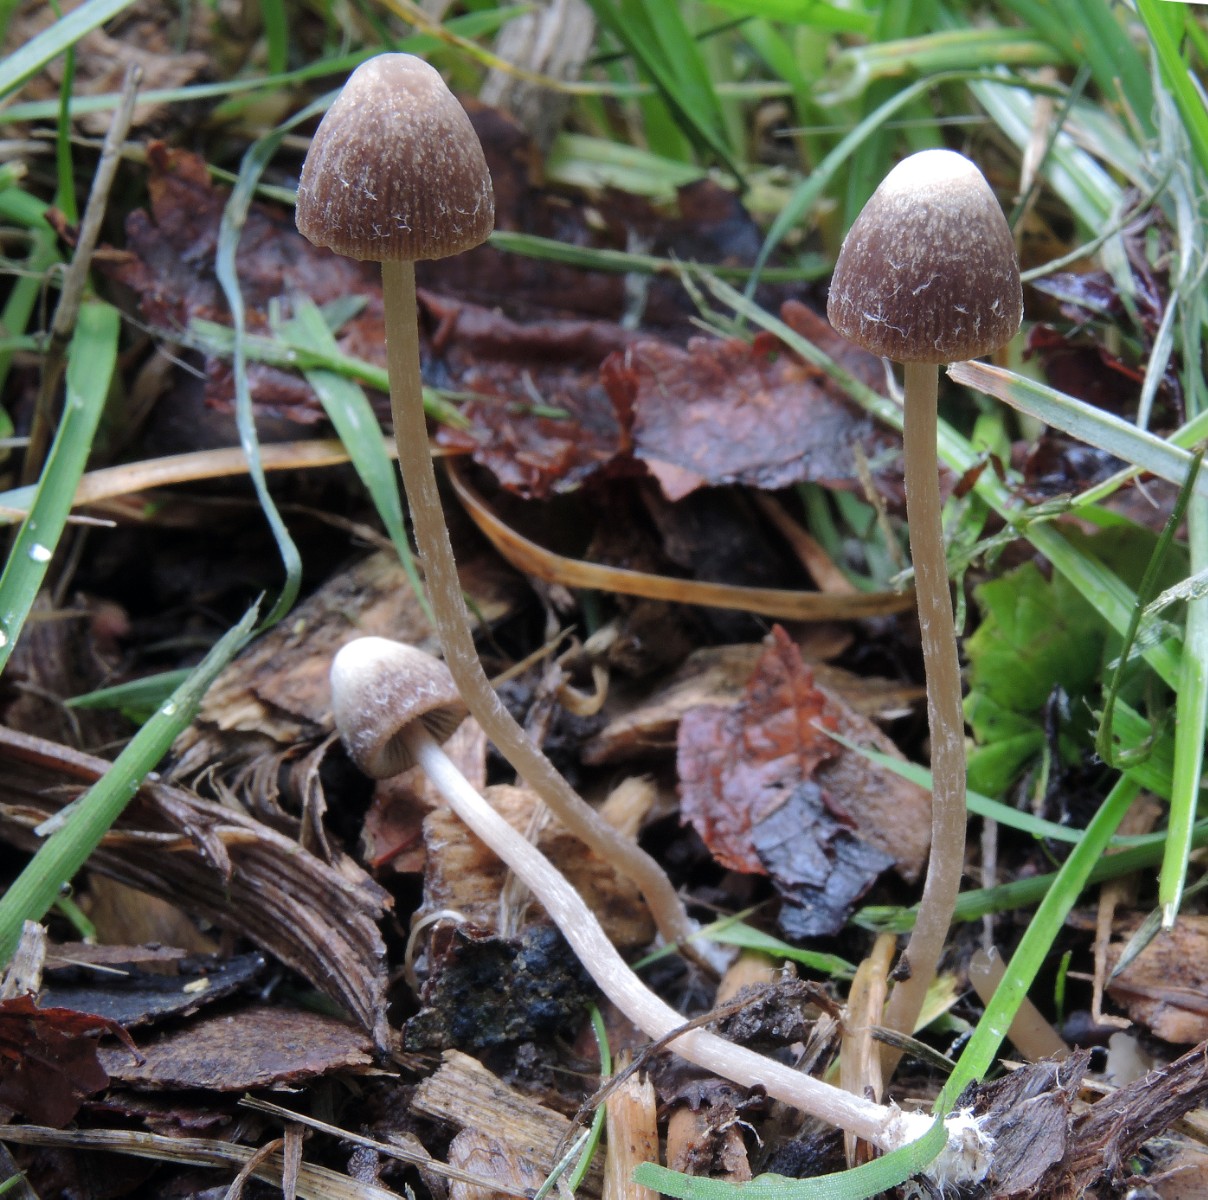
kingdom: Fungi
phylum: Basidiomycota
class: Agaricomycetes
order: Agaricales
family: Psathyrellaceae
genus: Psathyrella
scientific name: Psathyrella tenera
